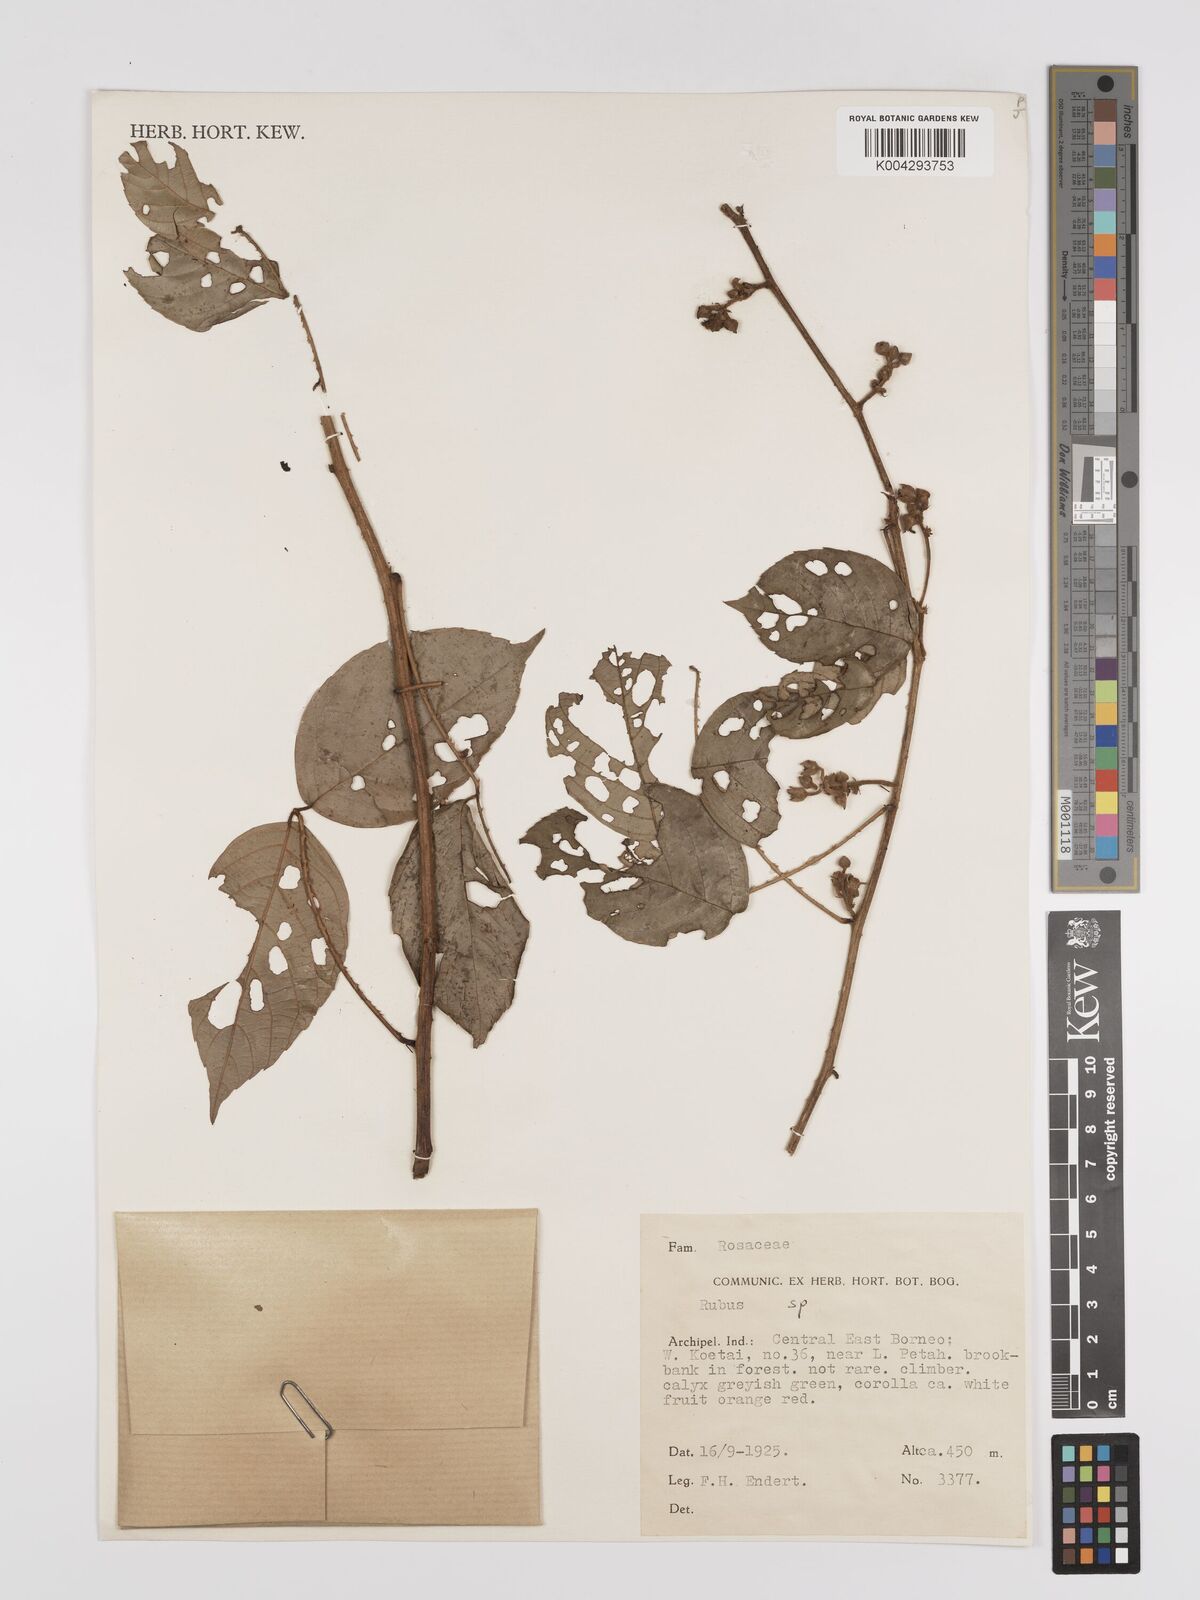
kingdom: Plantae
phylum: Tracheophyta
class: Magnoliopsida
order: Rosales
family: Rosaceae
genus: Rubus
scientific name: Rubus clementis
